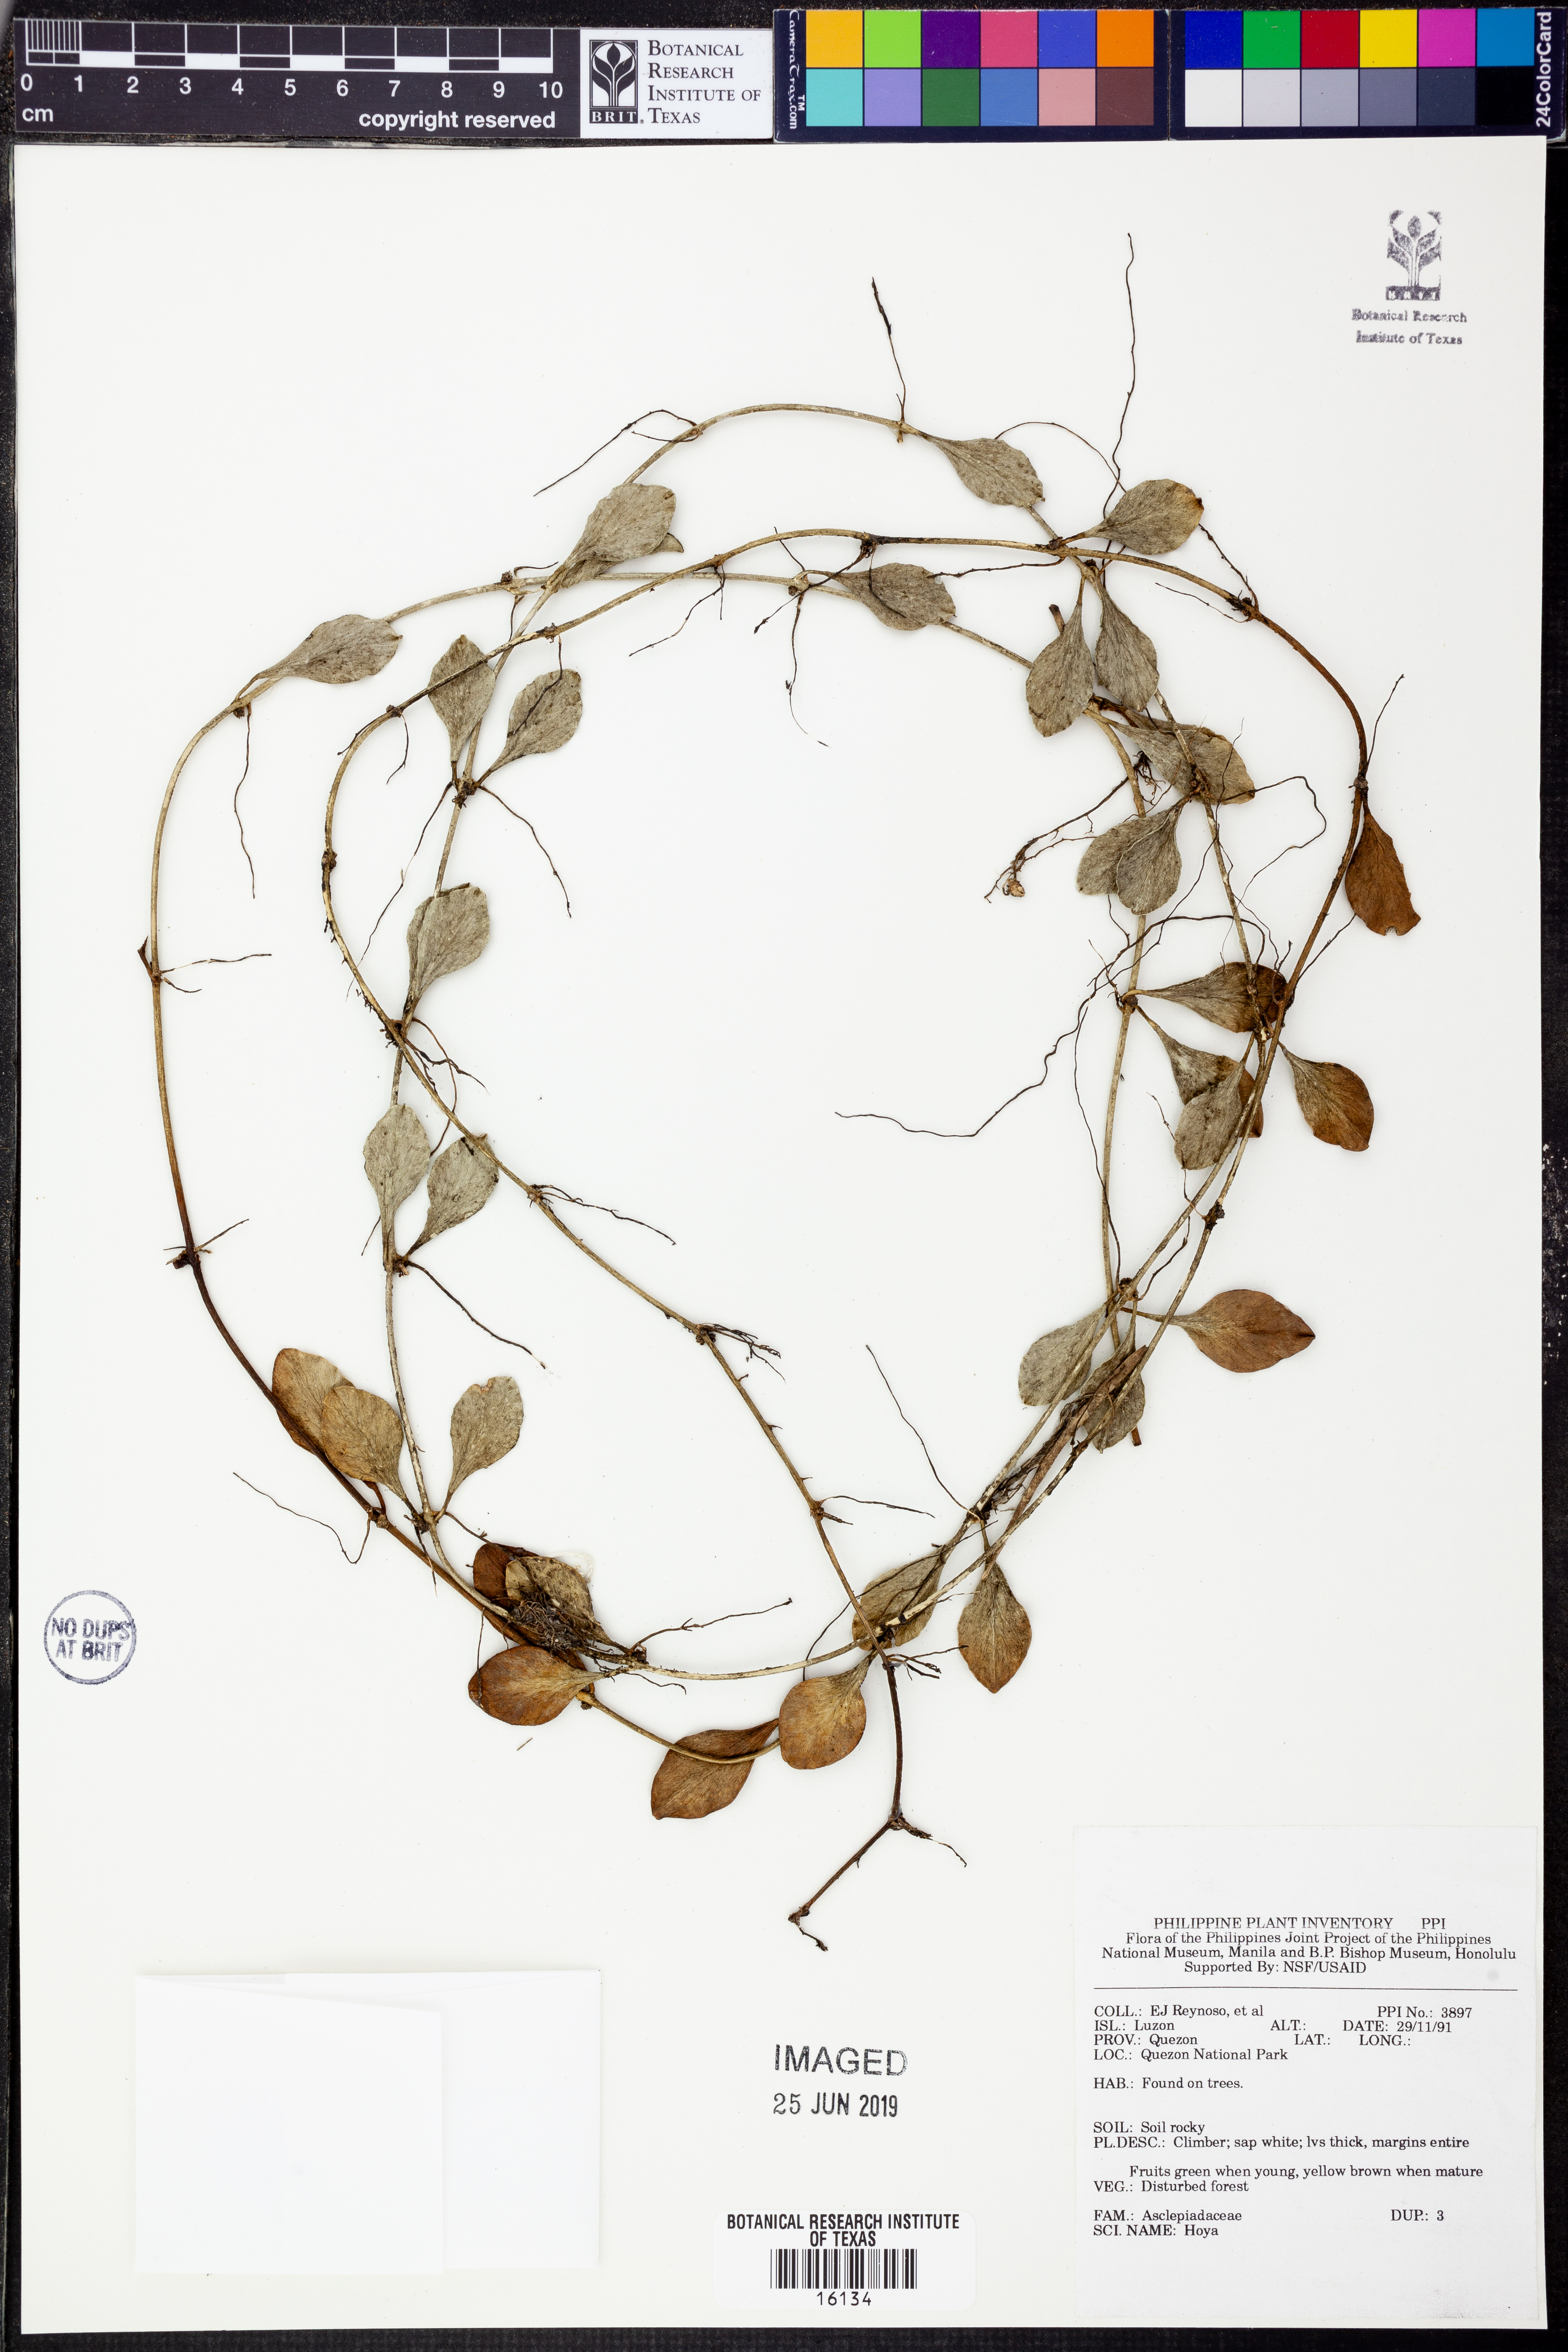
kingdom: Plantae
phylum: Tracheophyta
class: Magnoliopsida
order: Gentianales
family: Apocynaceae
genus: Hoya
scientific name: Hoya
